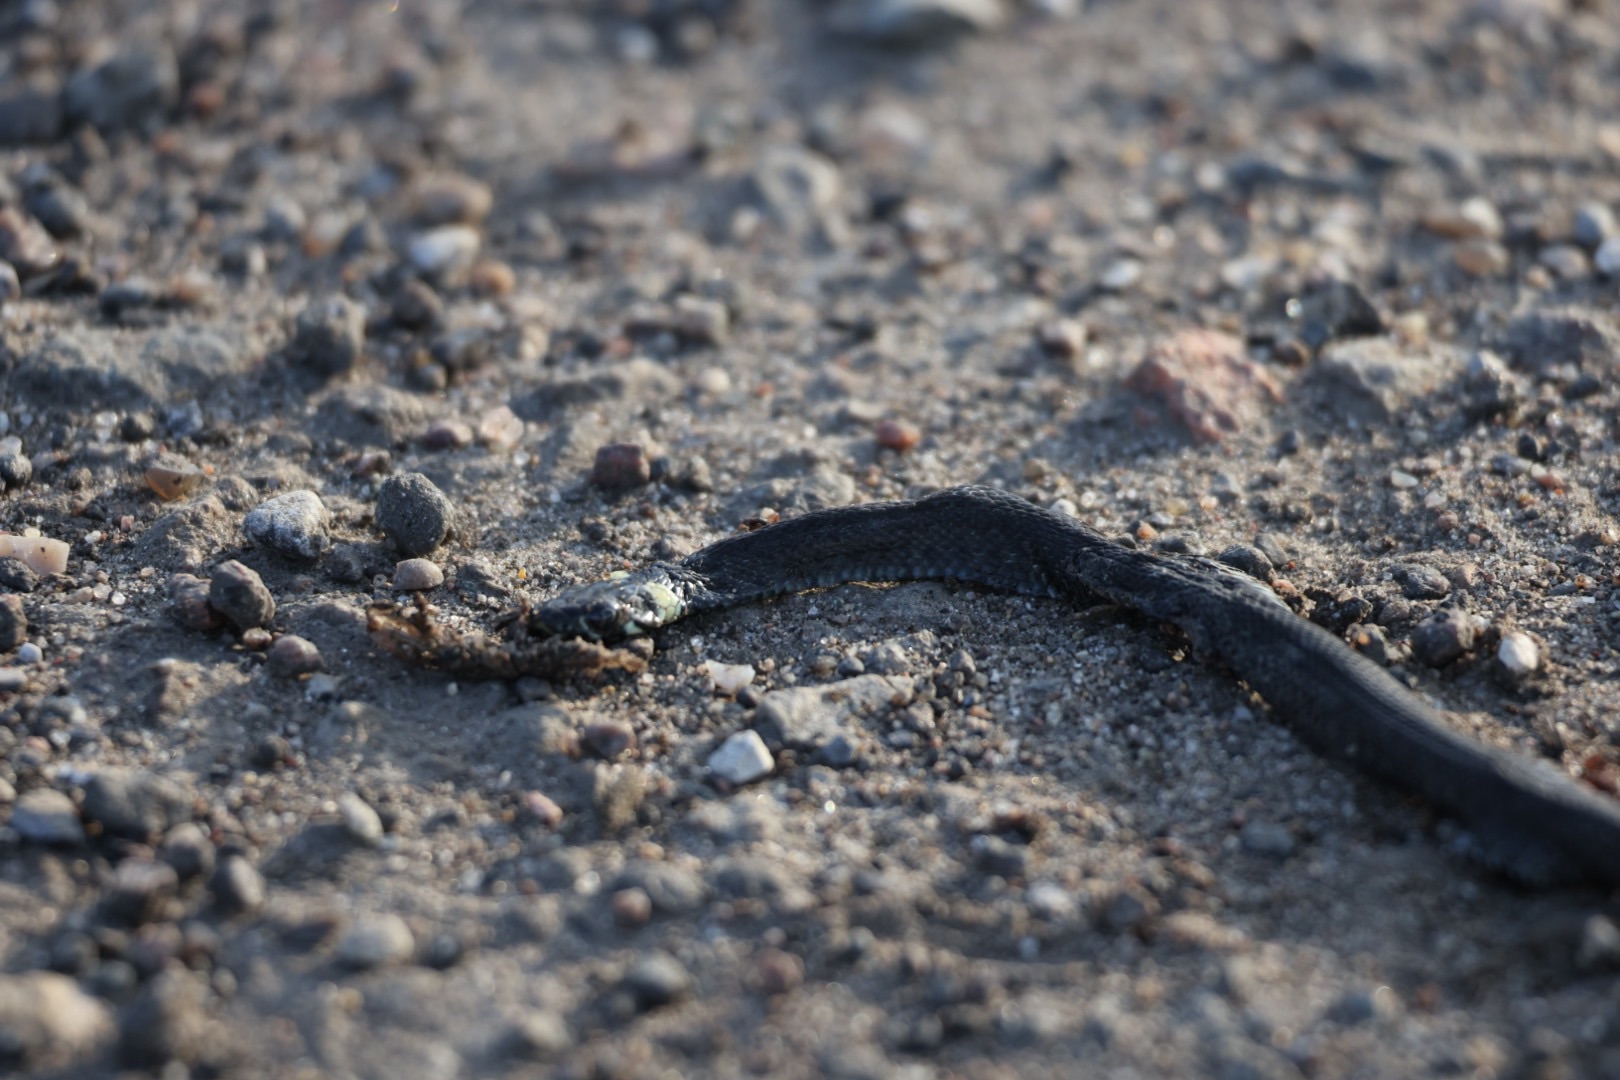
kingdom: Animalia
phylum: Chordata
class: Squamata
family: Colubridae
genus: Natrix
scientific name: Natrix natrix
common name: Snog
